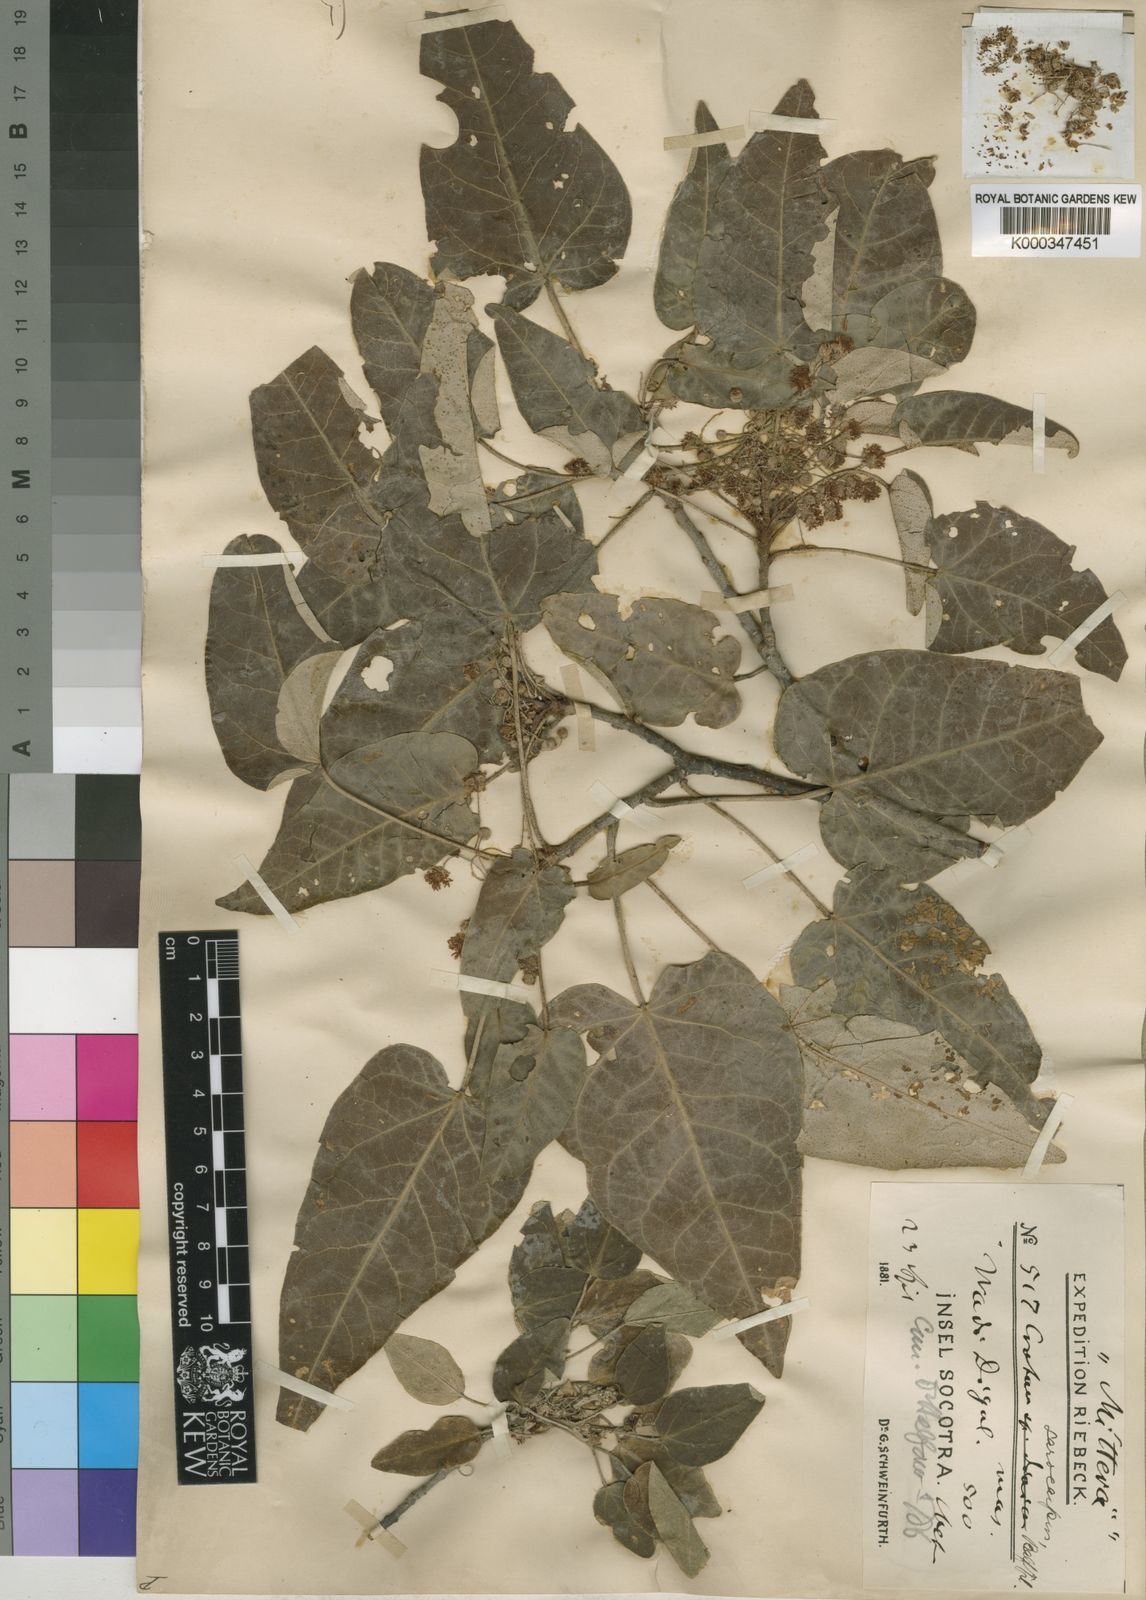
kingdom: Plantae
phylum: Tracheophyta
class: Magnoliopsida
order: Malpighiales
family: Euphorbiaceae
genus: Croton
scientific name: Croton sarcocarpus
